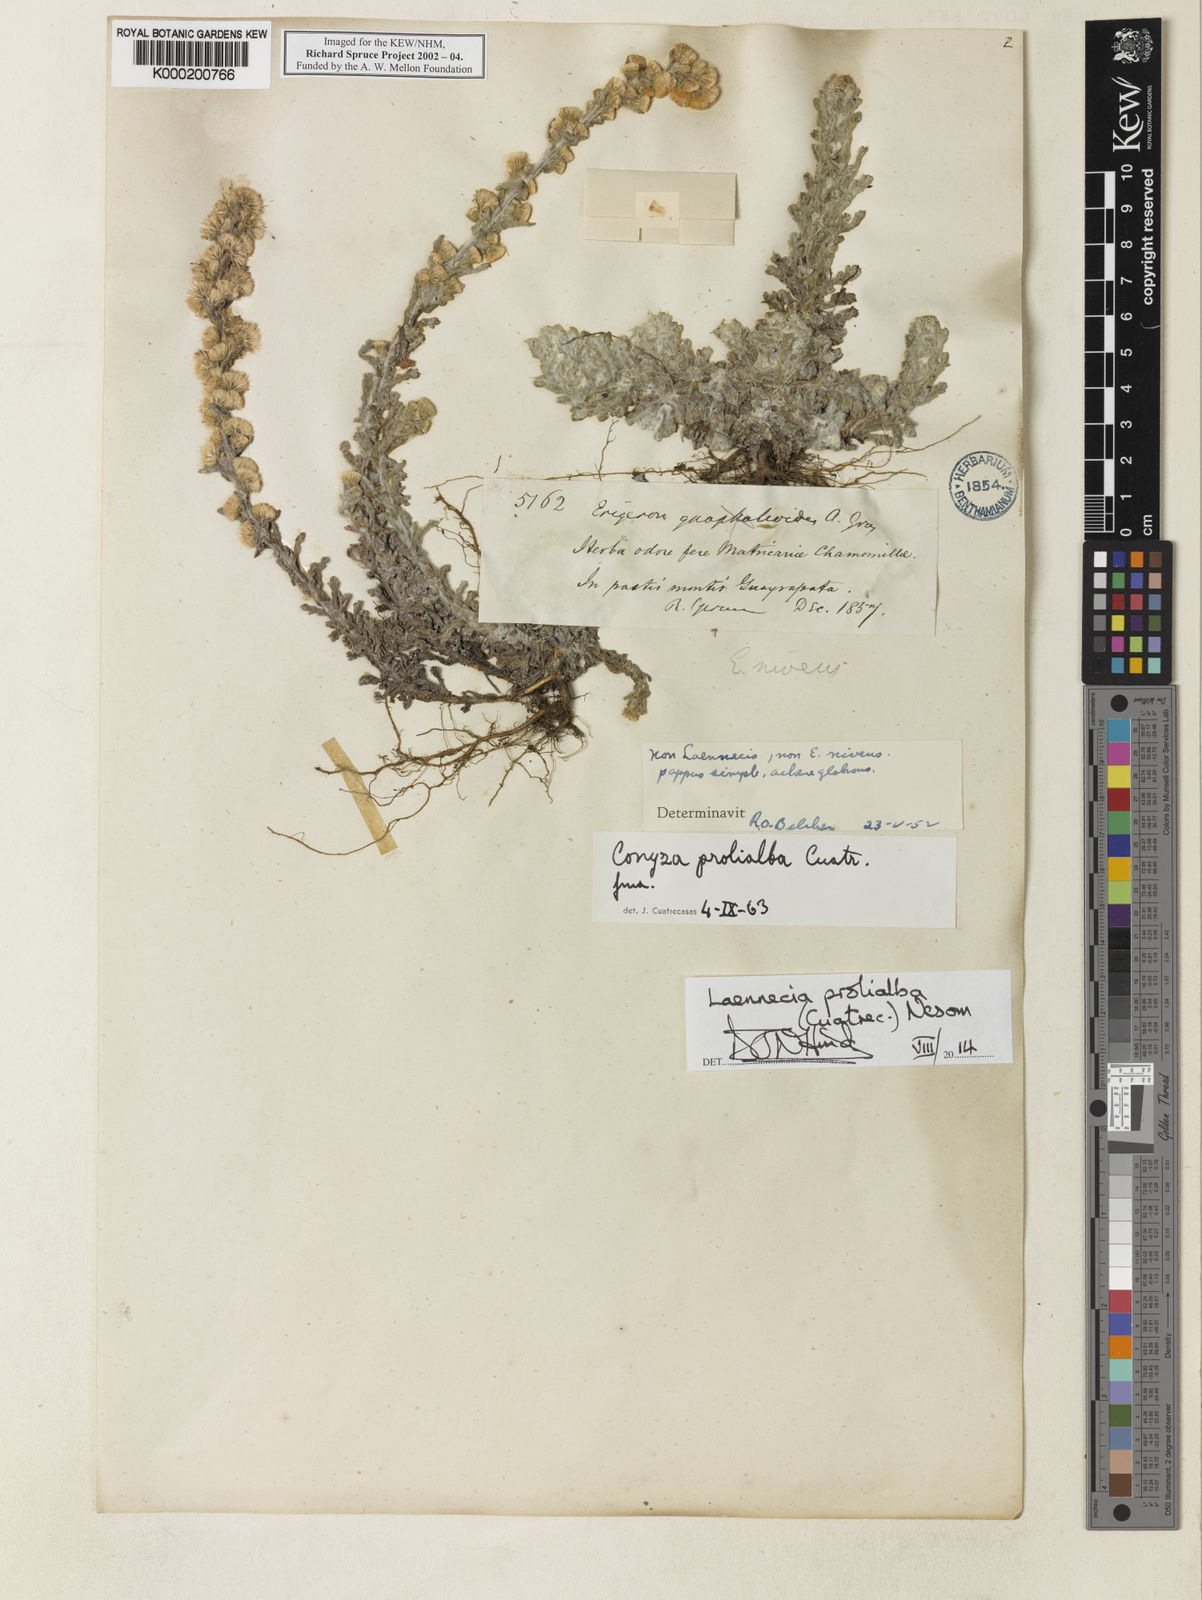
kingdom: Plantae
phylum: Tracheophyta
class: Magnoliopsida
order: Asterales
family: Asteraceae
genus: Laennecia
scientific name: Laennecia prolialba
